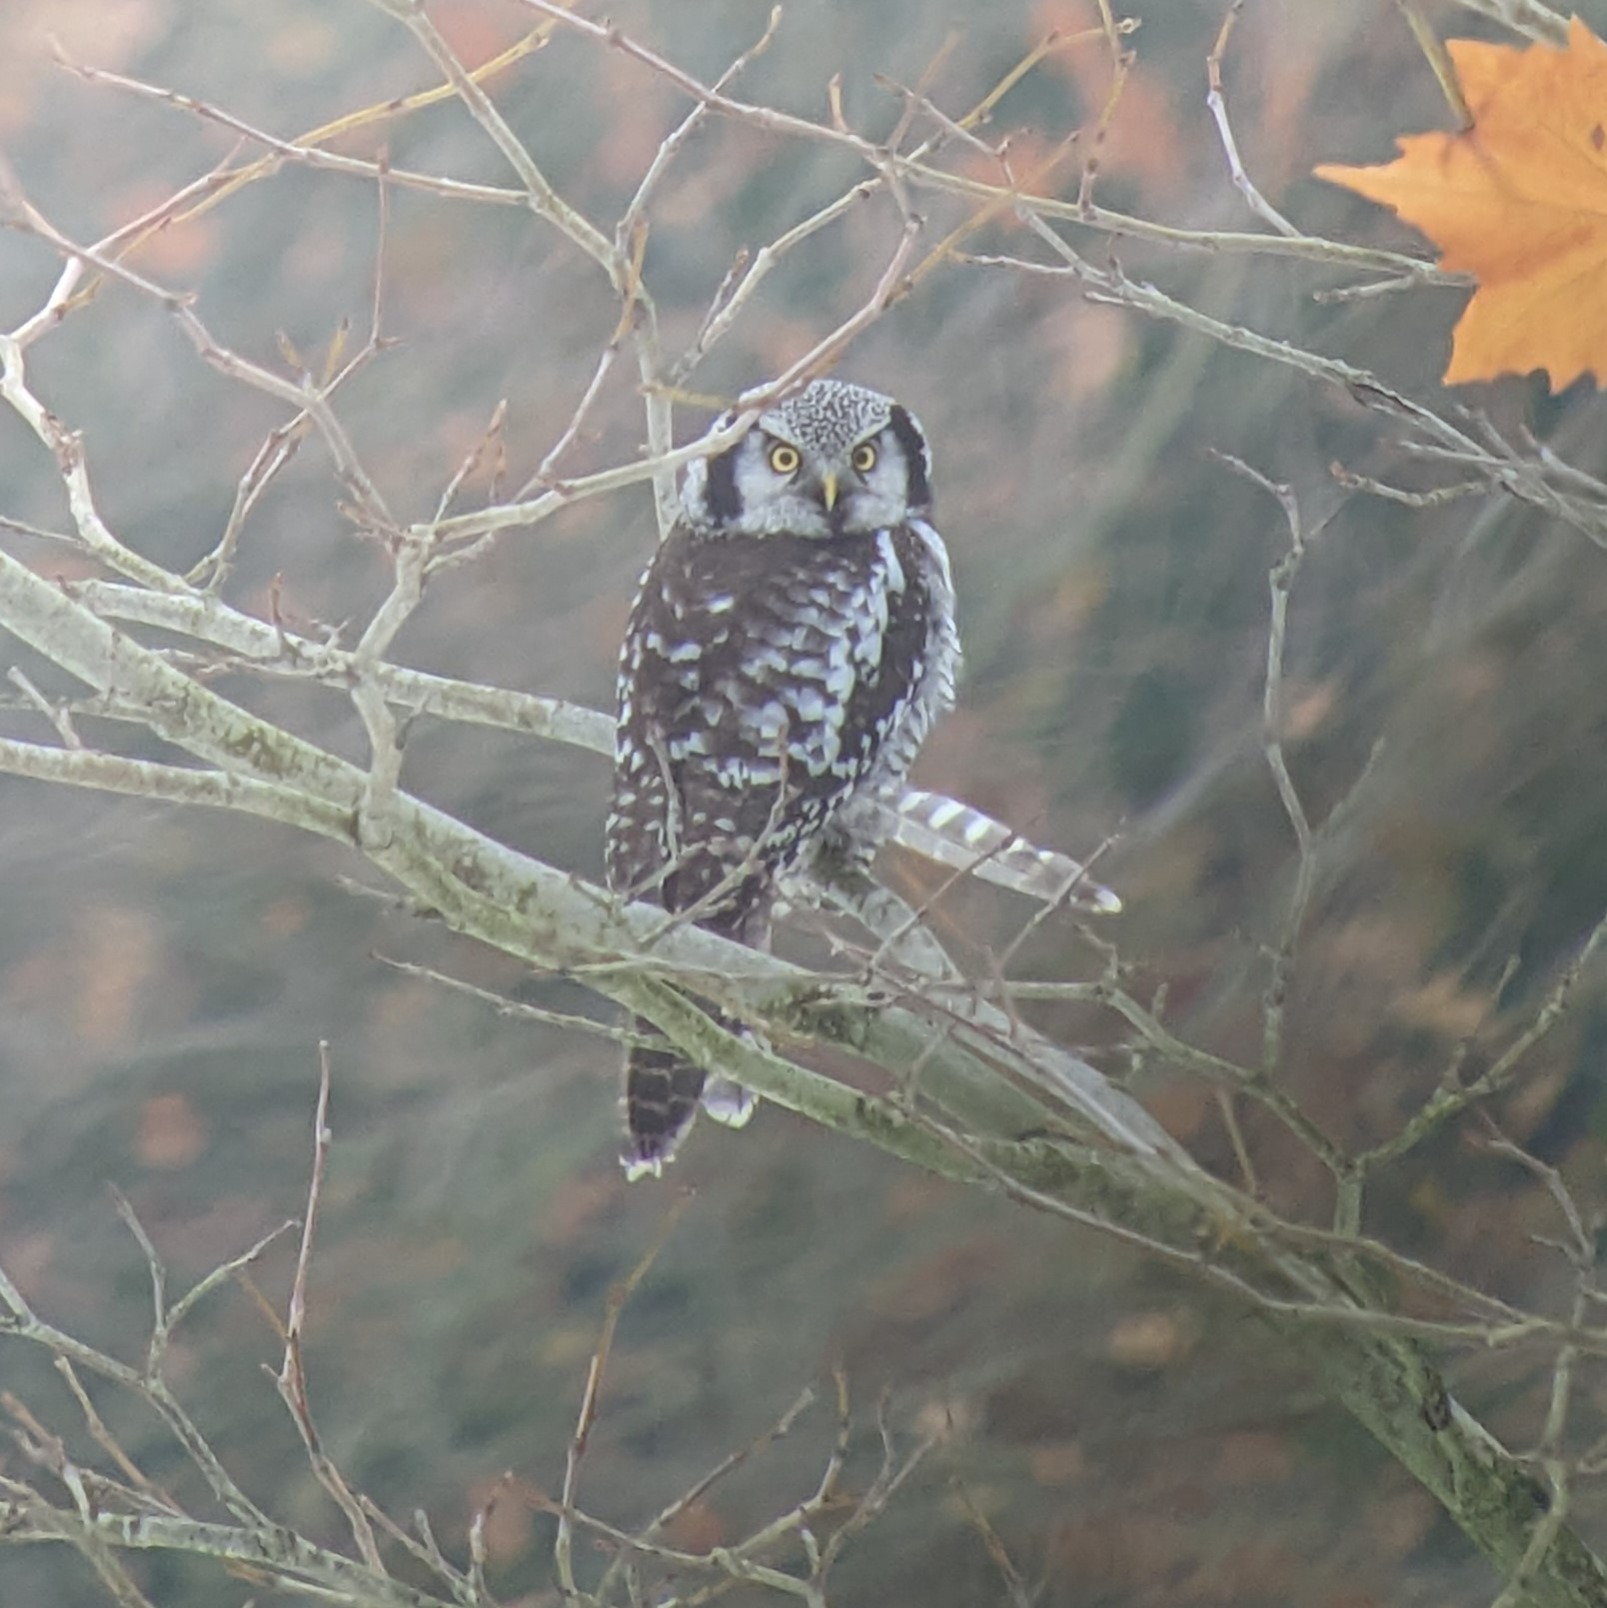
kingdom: Animalia
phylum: Chordata
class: Aves
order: Strigiformes
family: Strigidae
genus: Surnia
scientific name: Surnia ulula
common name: Høgeugle
